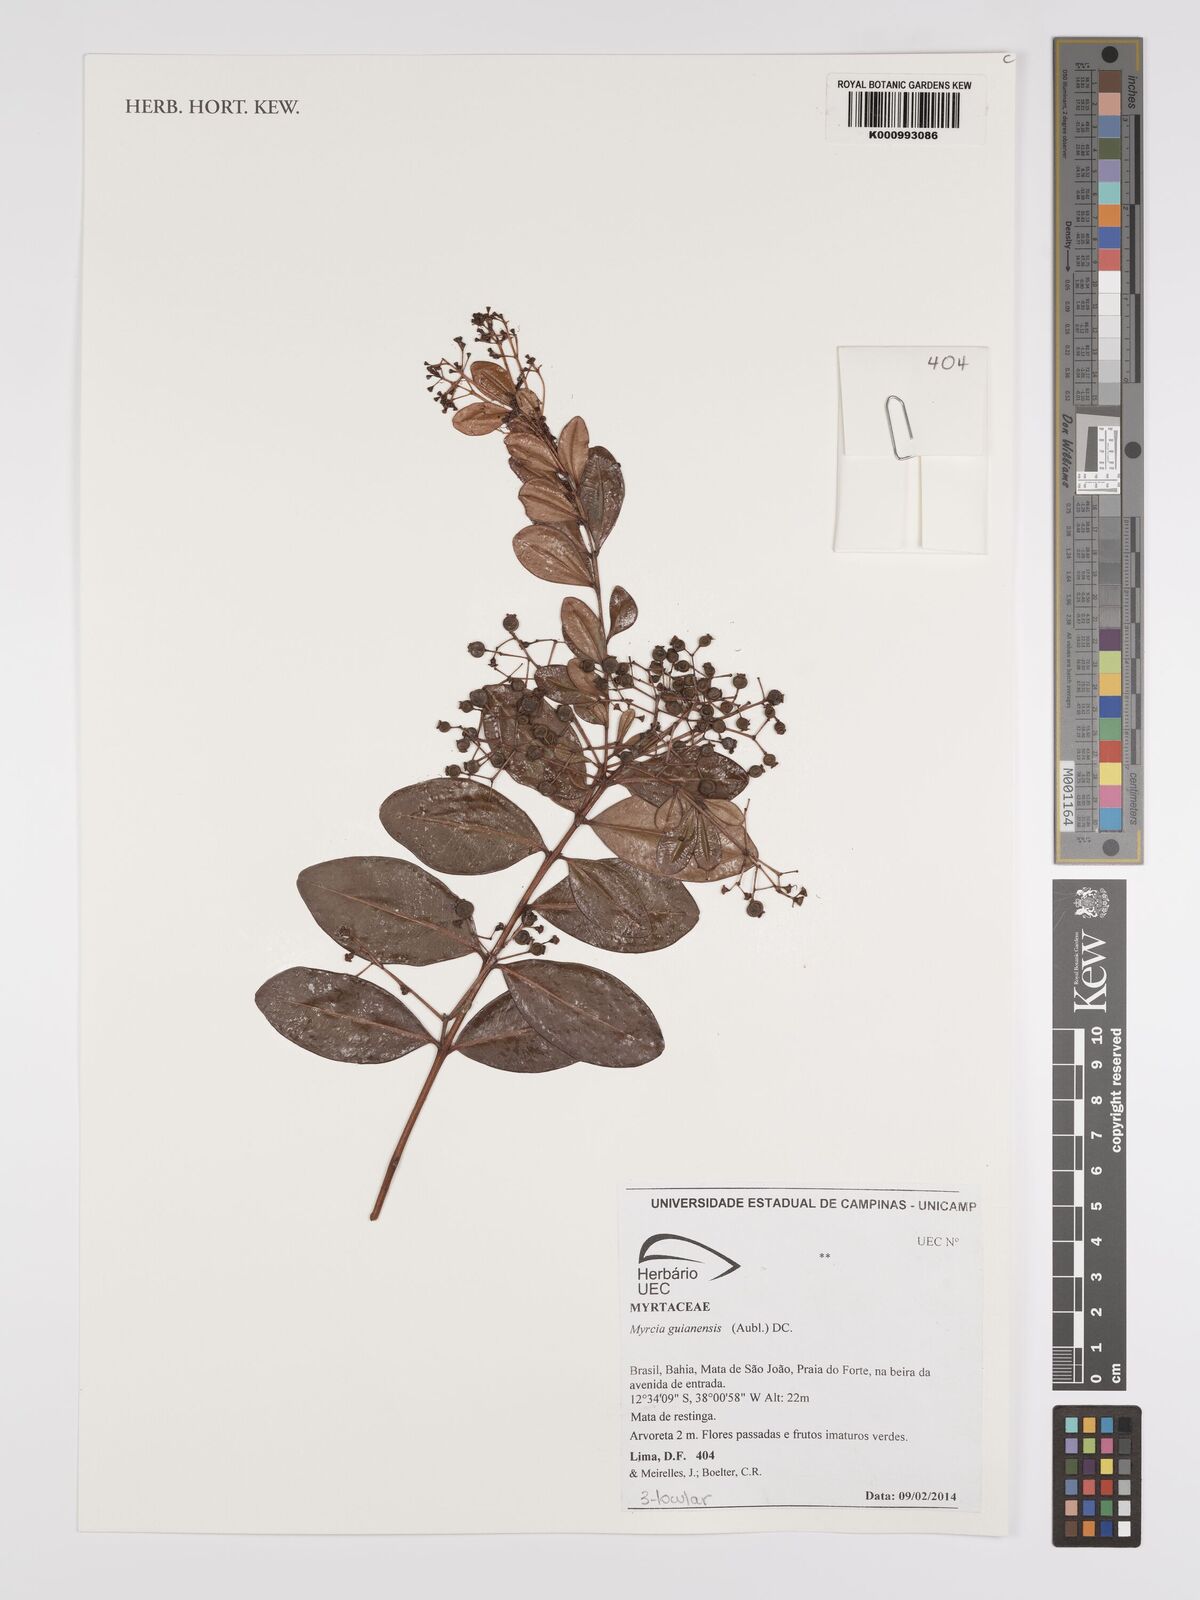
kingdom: Plantae
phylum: Tracheophyta
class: Magnoliopsida
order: Myrtales
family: Myrtaceae
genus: Myrcia
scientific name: Myrcia guianensis
